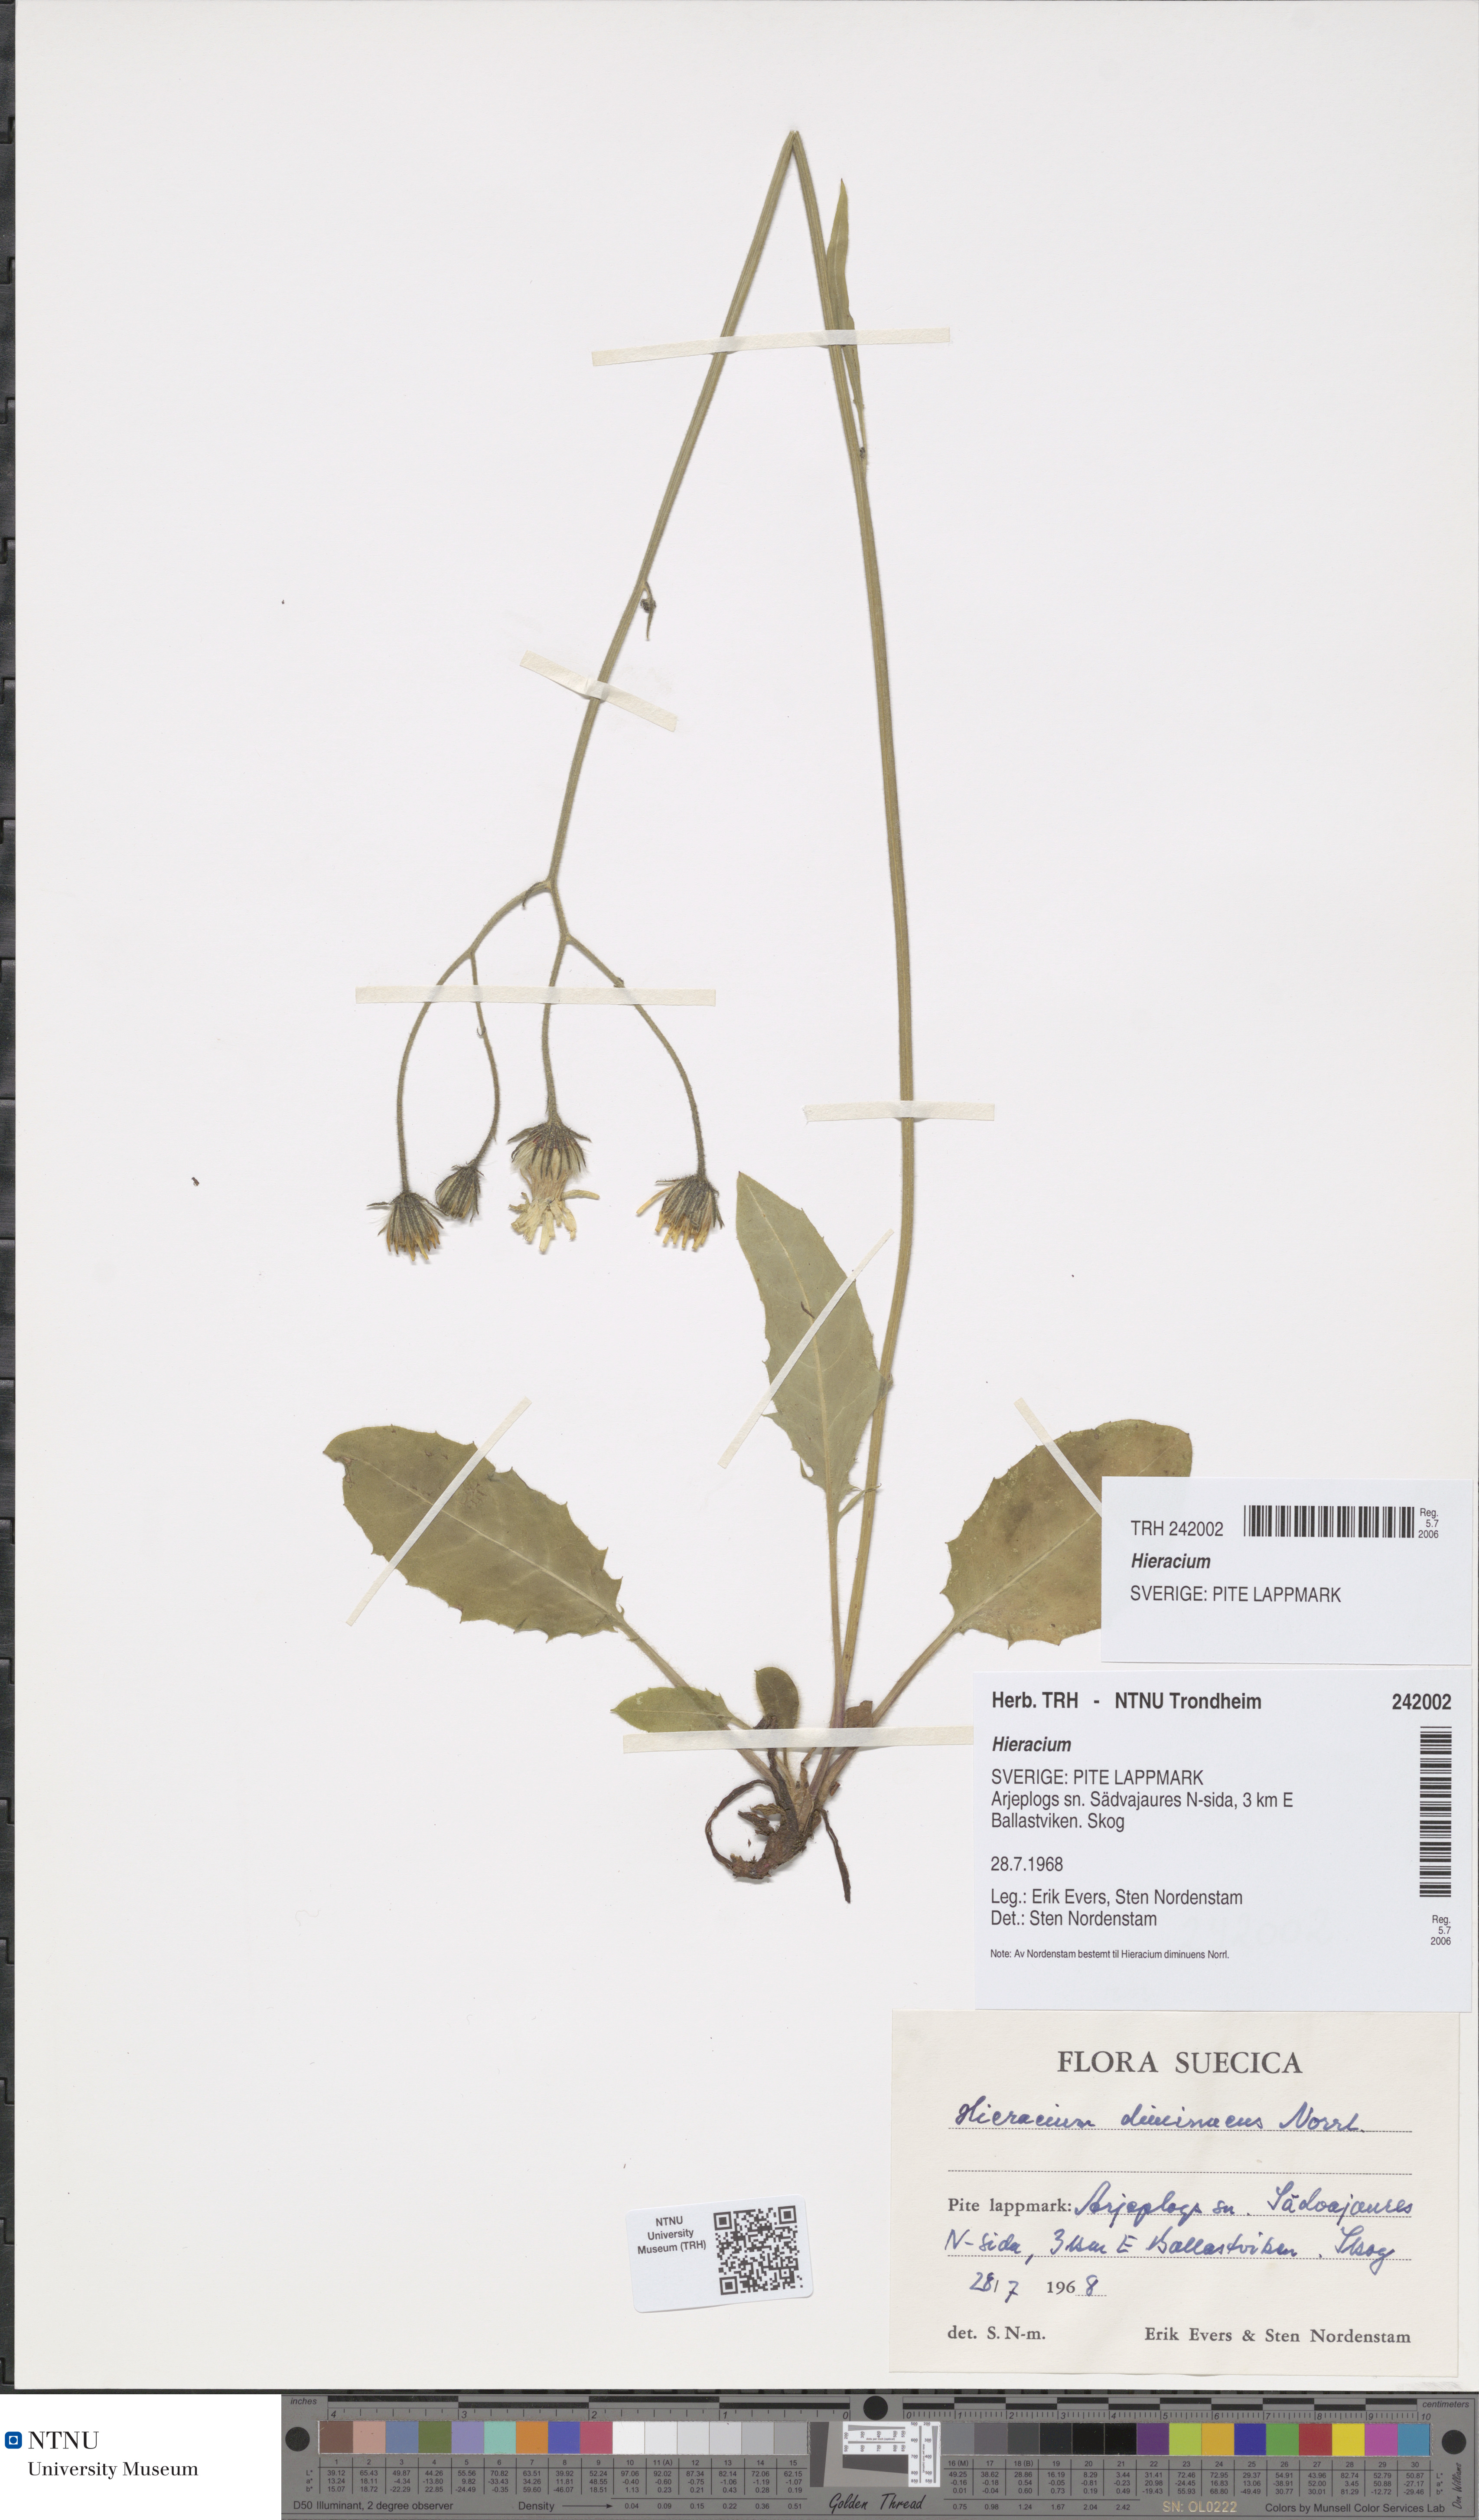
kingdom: Plantae
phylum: Tracheophyta
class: Magnoliopsida
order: Asterales
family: Asteraceae
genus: Hieracium
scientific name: Hieracium
